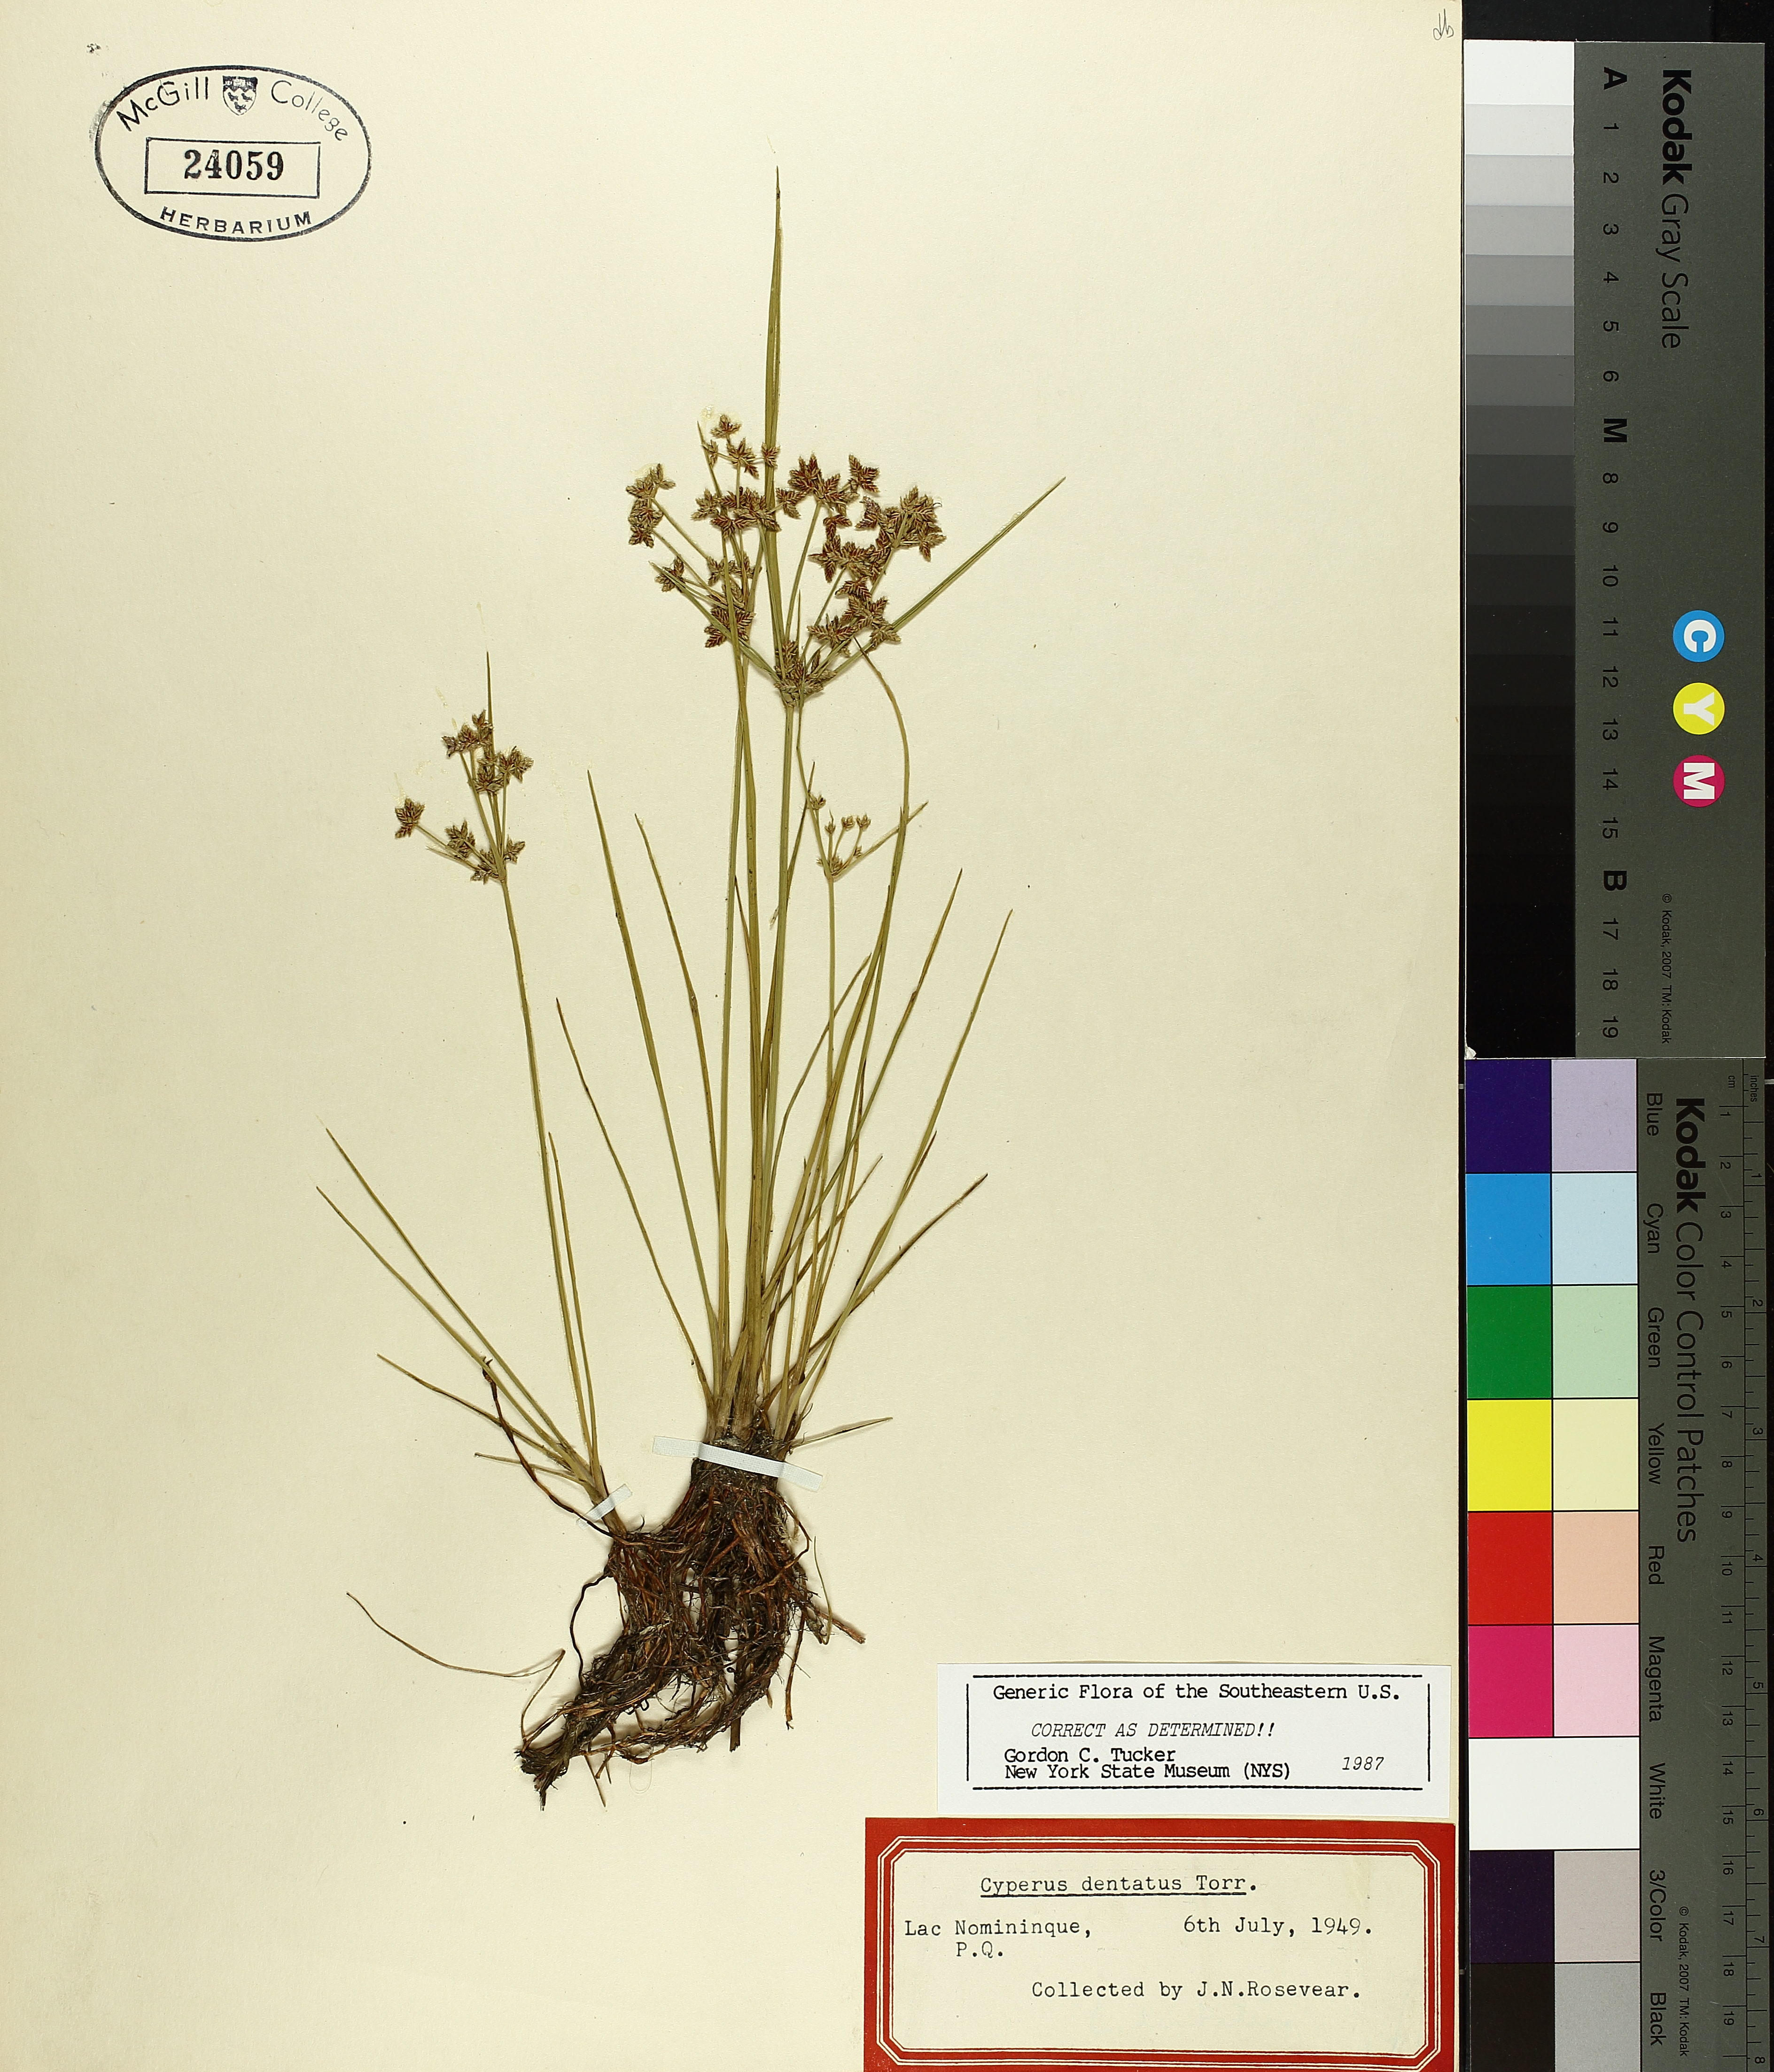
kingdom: Plantae
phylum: Tracheophyta
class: Liliopsida
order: Poales
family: Cyperaceae
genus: Cyperus
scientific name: Cyperus dentatus
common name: Dentate umbrella sedge
